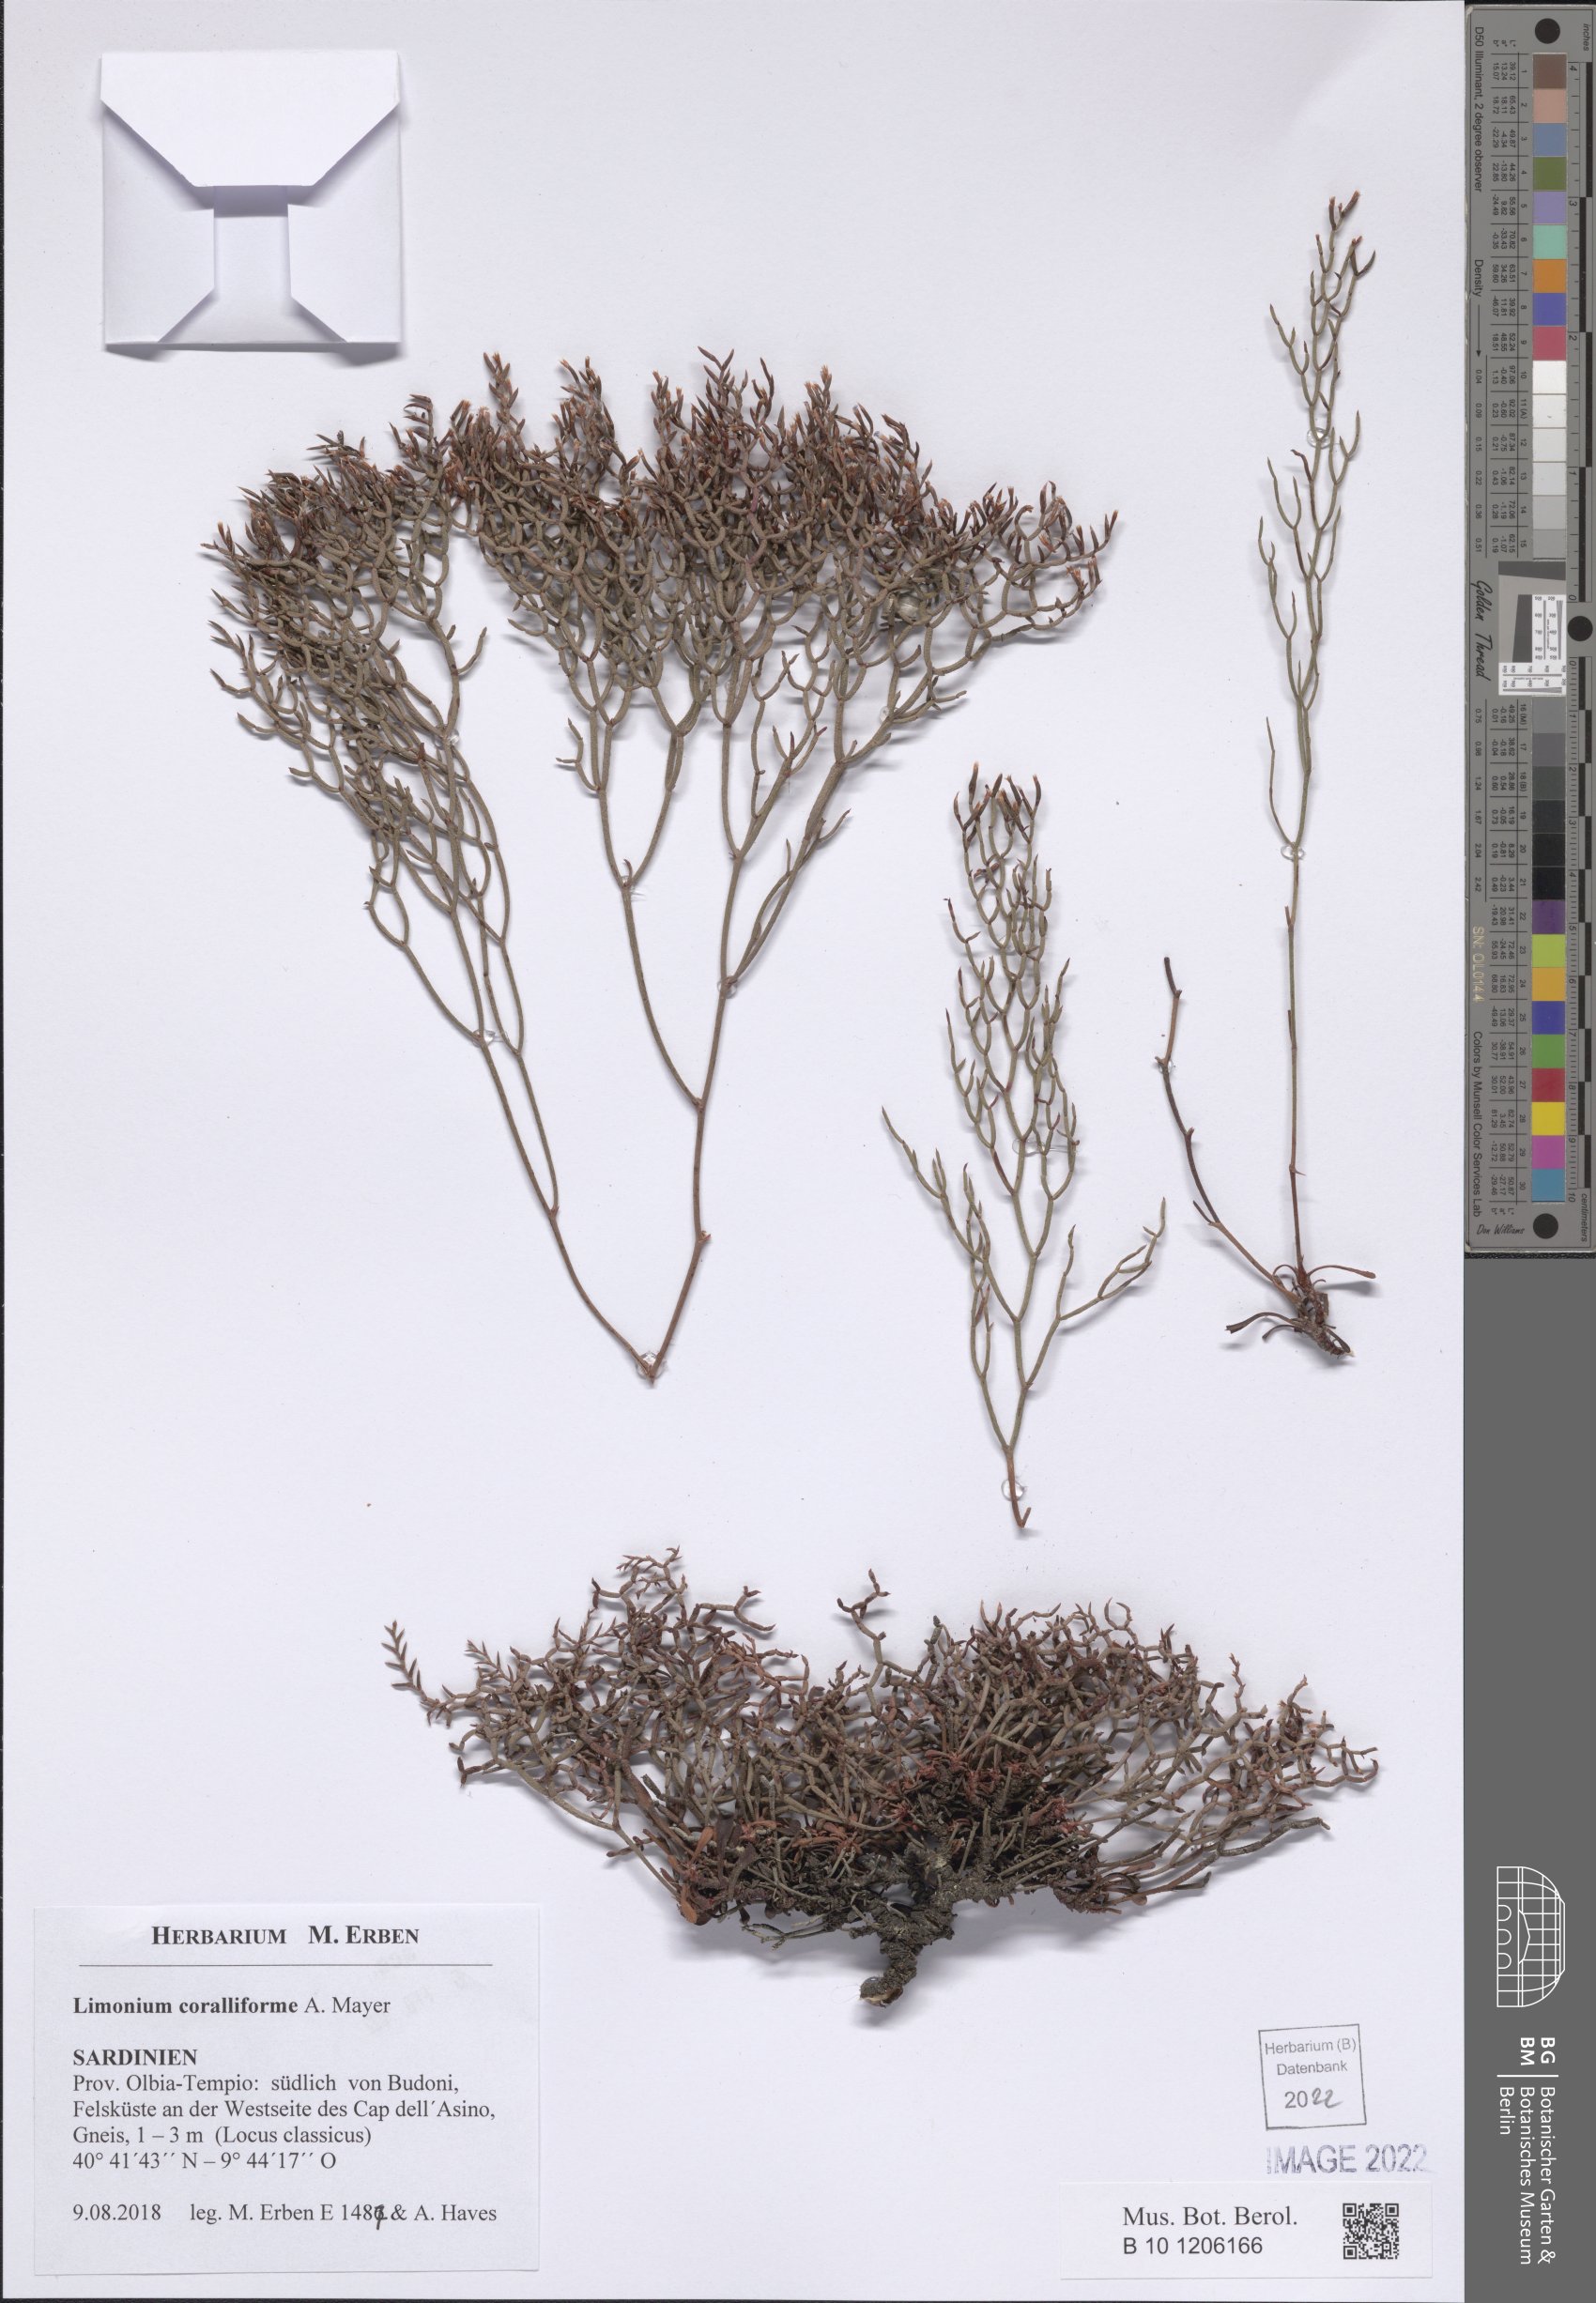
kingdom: Plantae
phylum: Tracheophyta
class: Magnoliopsida
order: Caryophyllales
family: Plumbaginaceae
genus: Limonium
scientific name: Limonium coralliforme
